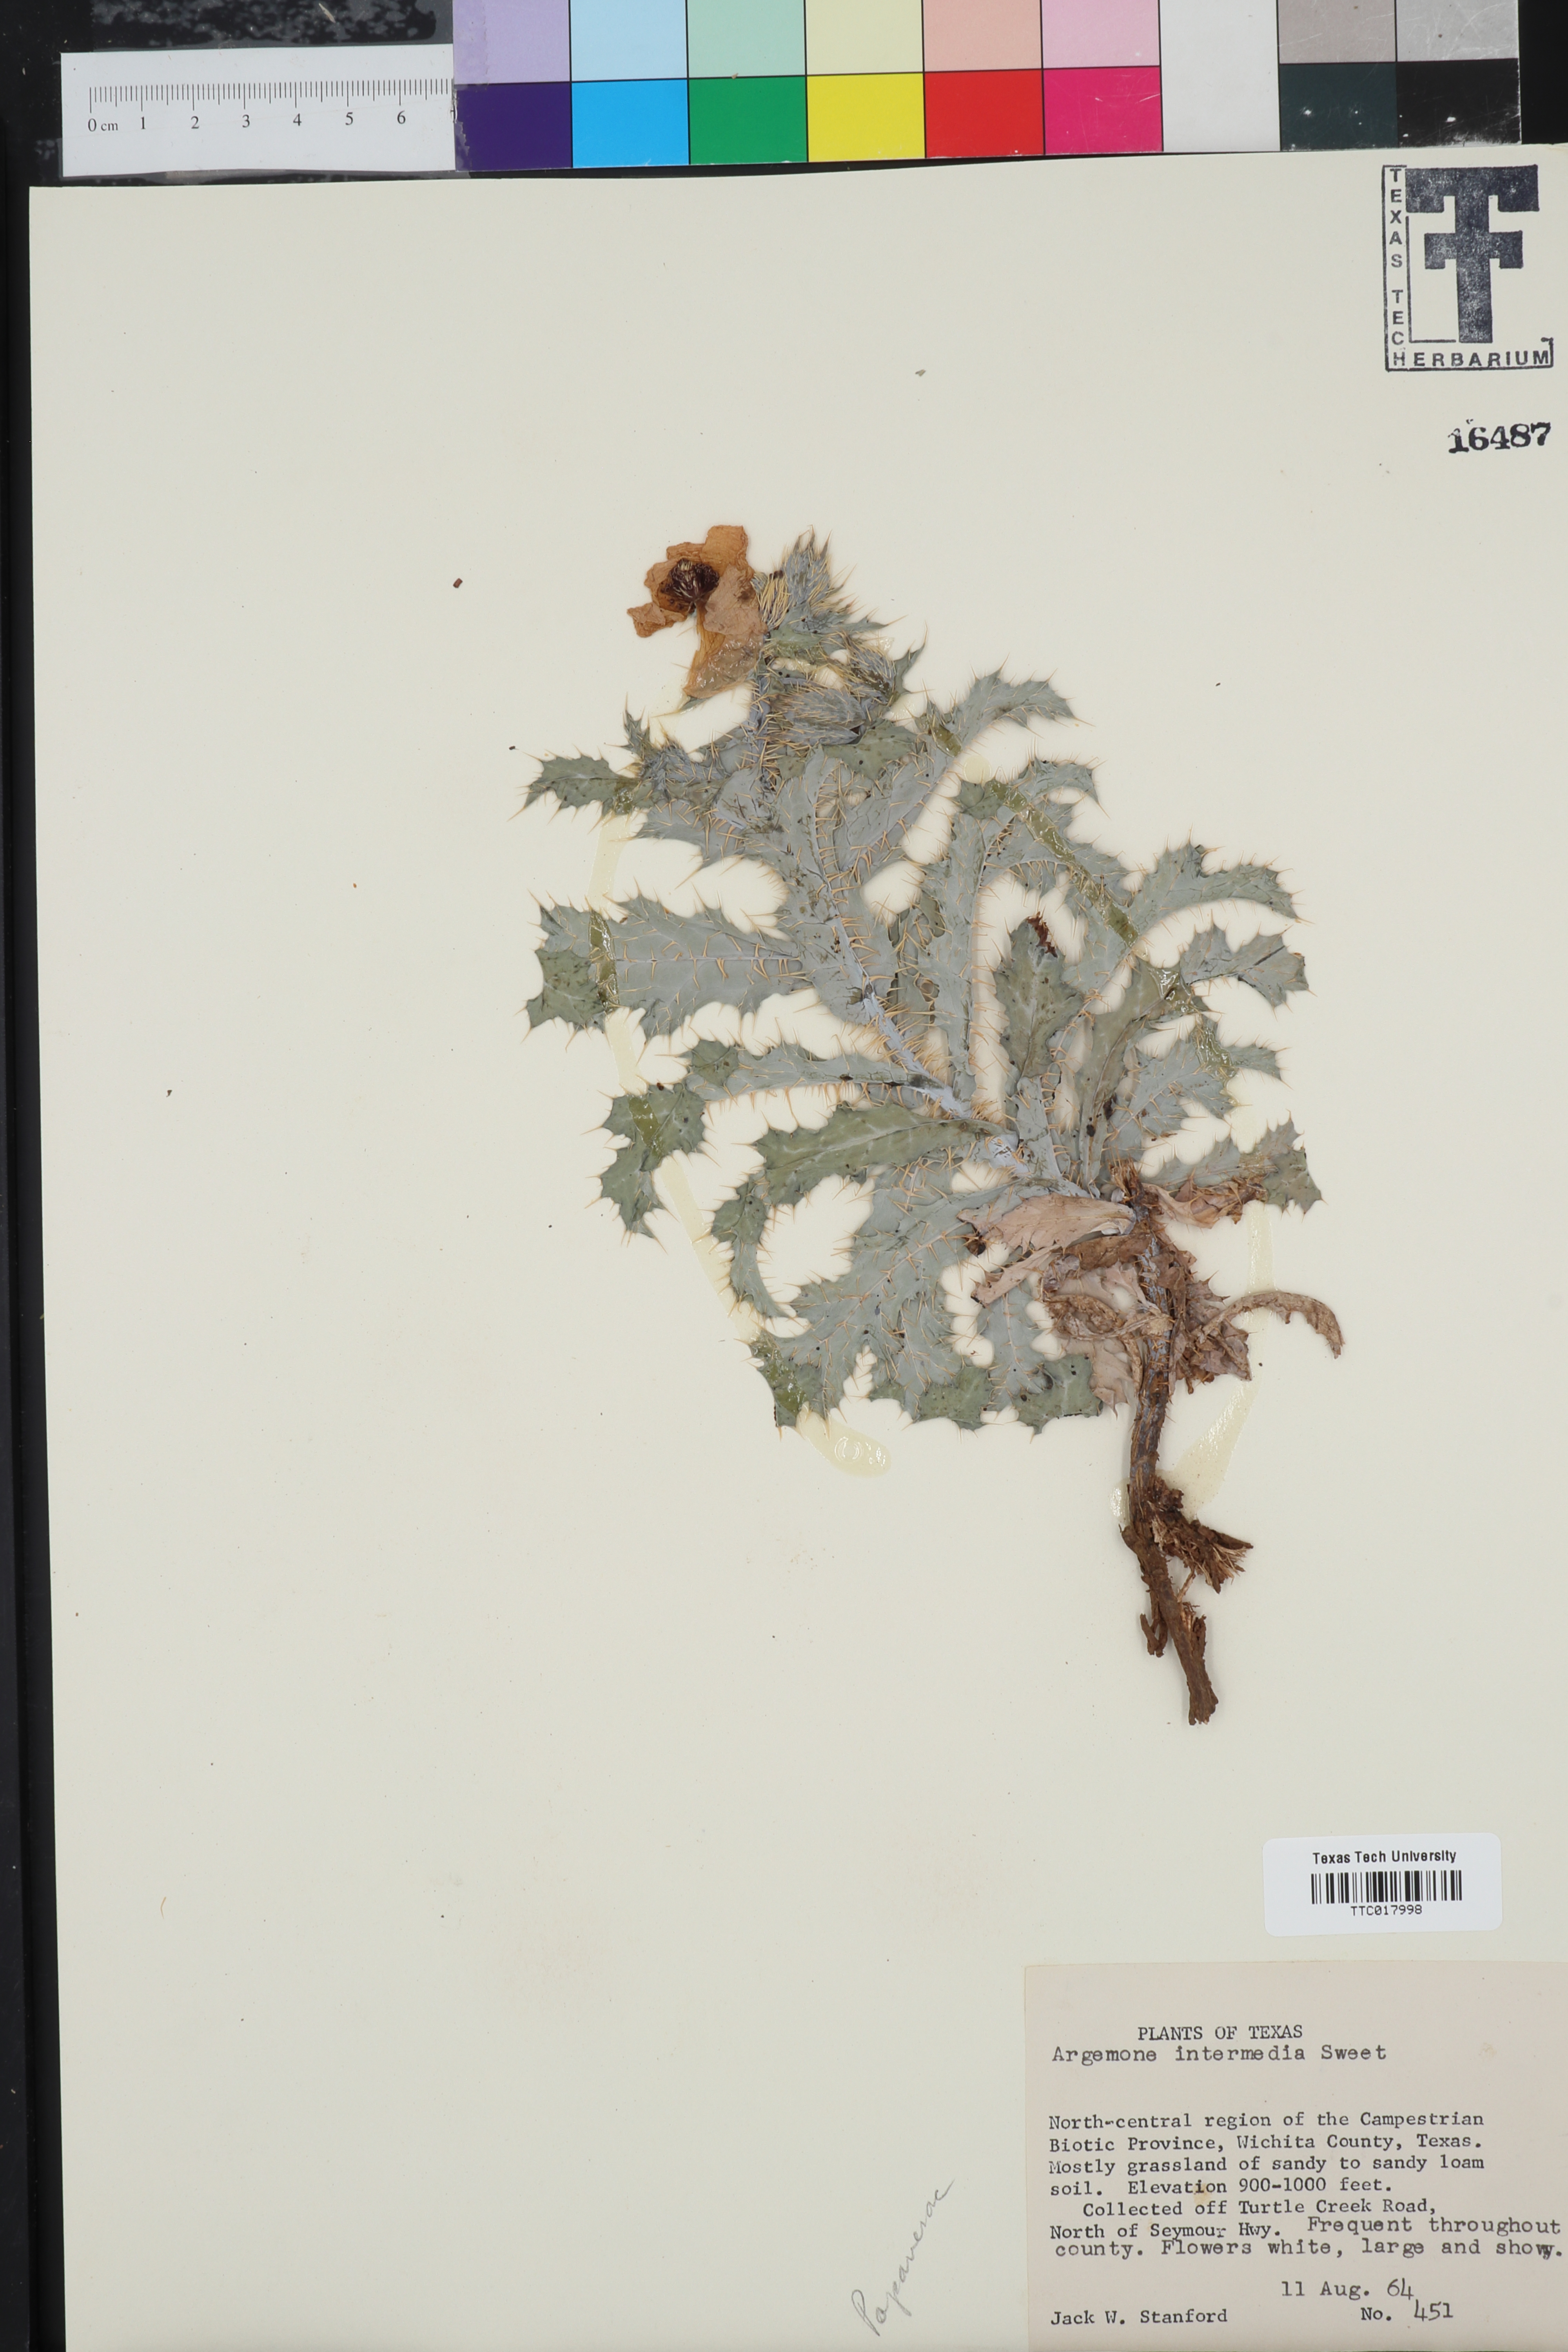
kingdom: Plantae
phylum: Tracheophyta
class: Magnoliopsida
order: Ranunculales
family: Papaveraceae
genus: Argemone
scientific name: Argemone intermedia
